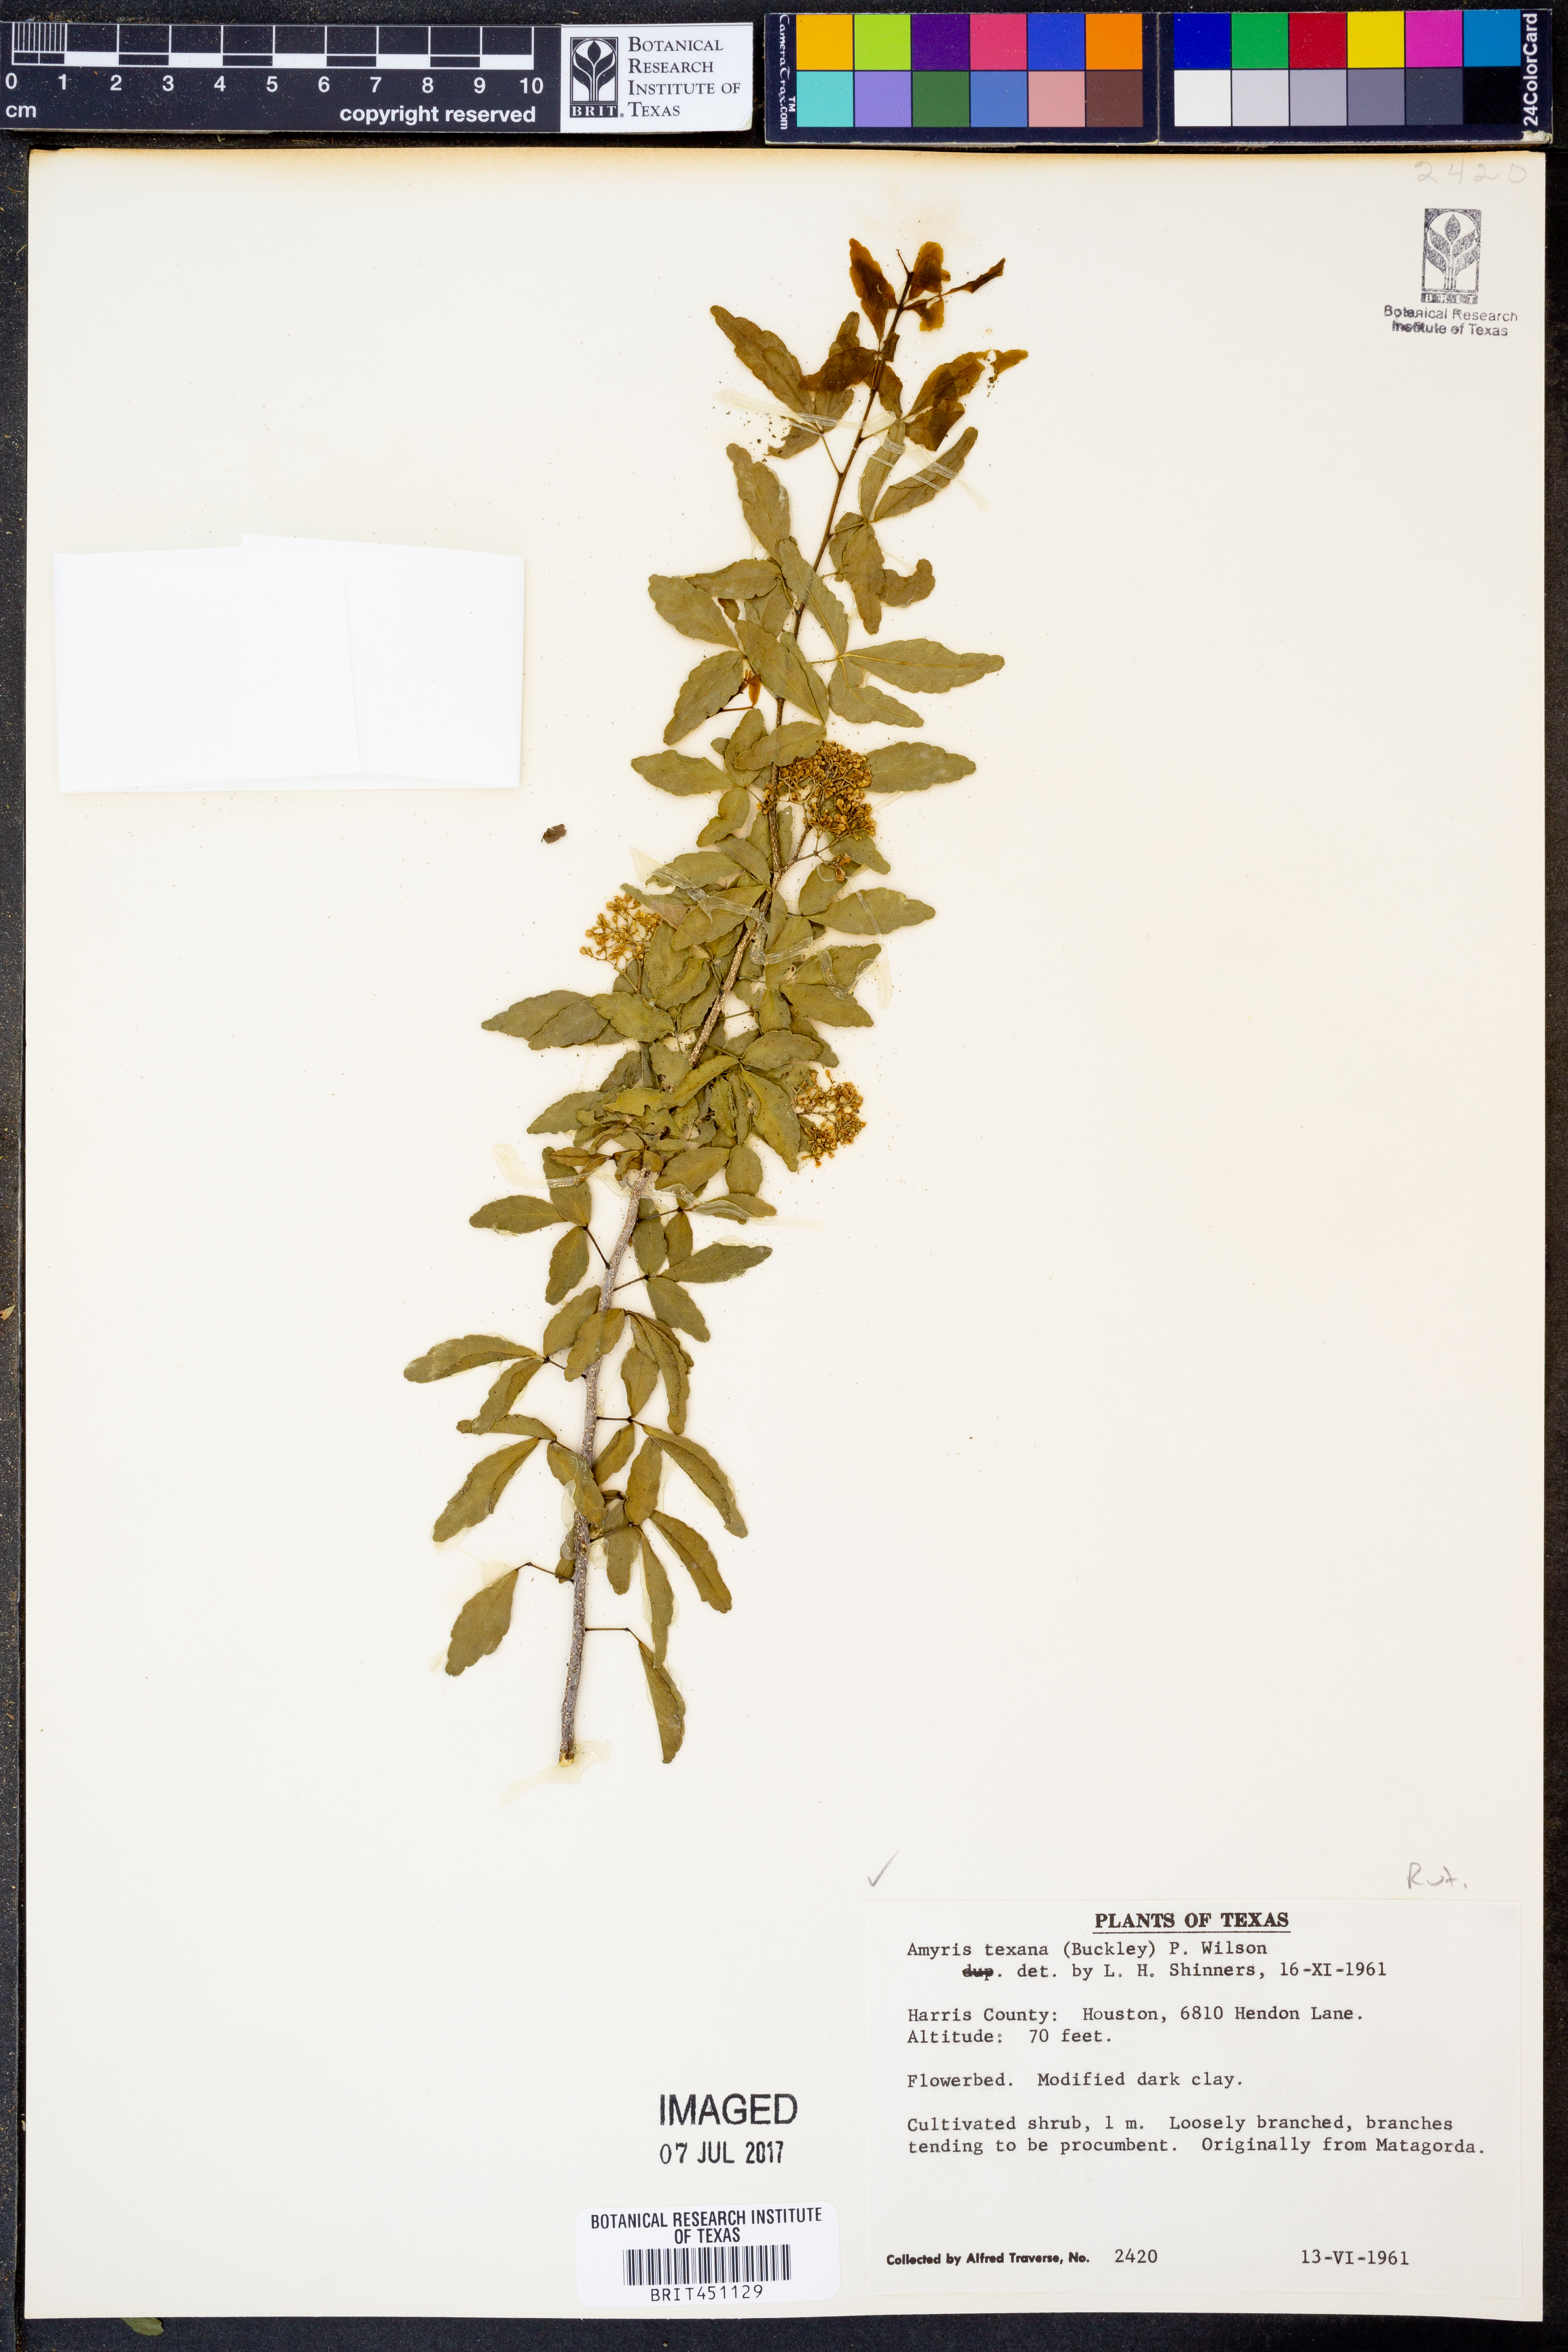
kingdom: Plantae
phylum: Tracheophyta
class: Magnoliopsida
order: Sapindales
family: Rutaceae
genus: Amyris
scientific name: Amyris texana
